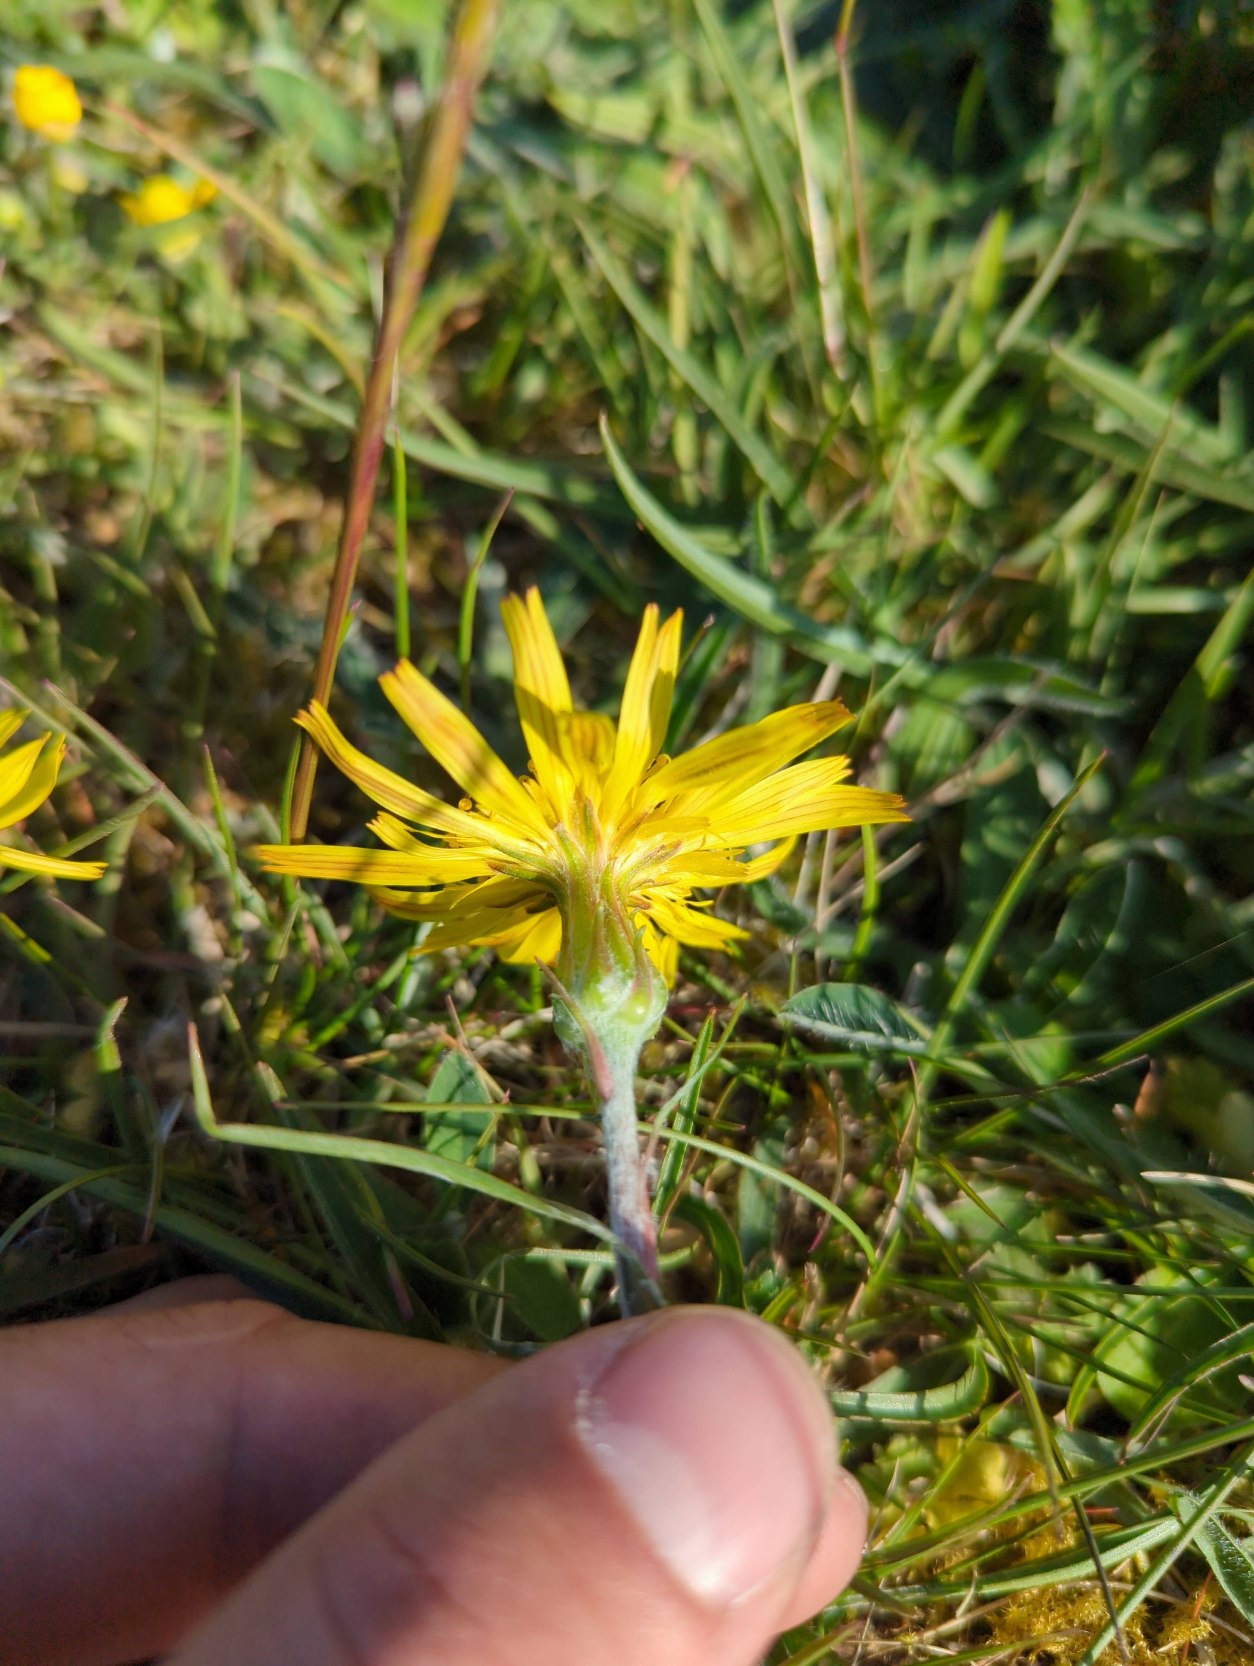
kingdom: Plantae
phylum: Tracheophyta
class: Magnoliopsida
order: Asterales
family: Asteraceae
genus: Scorzonera
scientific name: Scorzonera humilis
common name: Lav skorsoner
